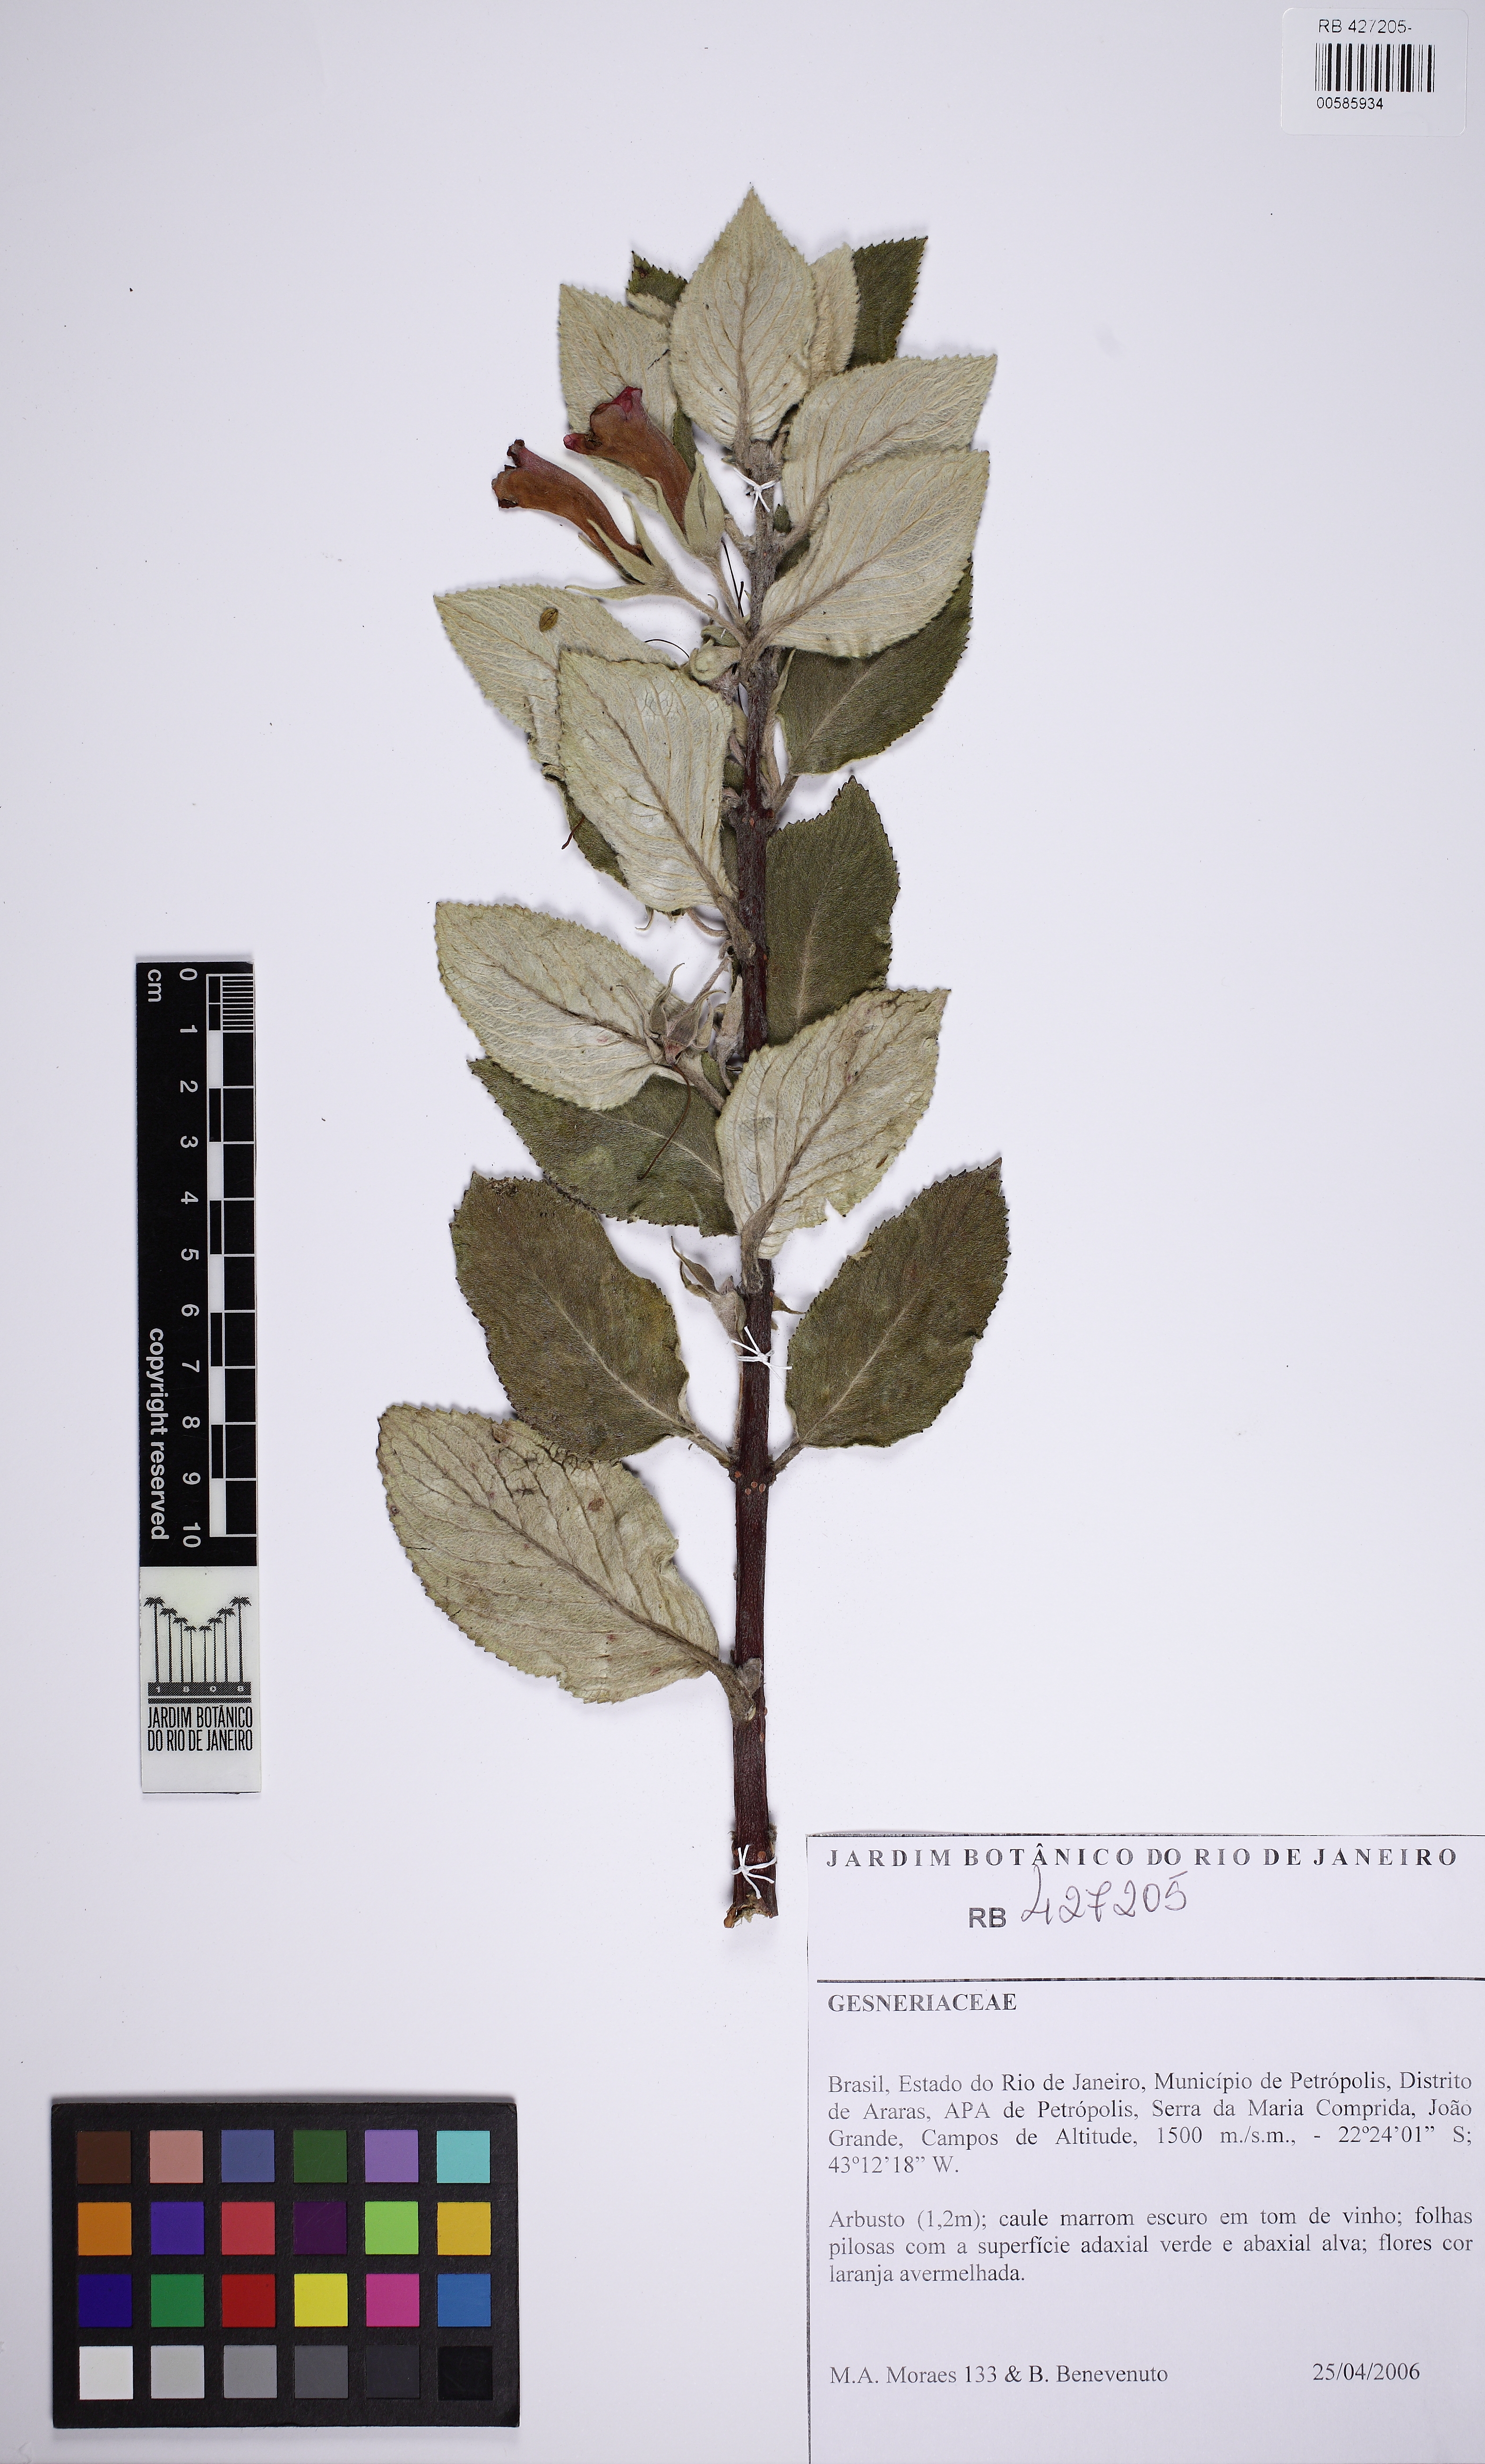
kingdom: Plantae
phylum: Tracheophyta
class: Magnoliopsida
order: Lamiales
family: Gesneriaceae
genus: Vanhouttea
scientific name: Vanhouttea
